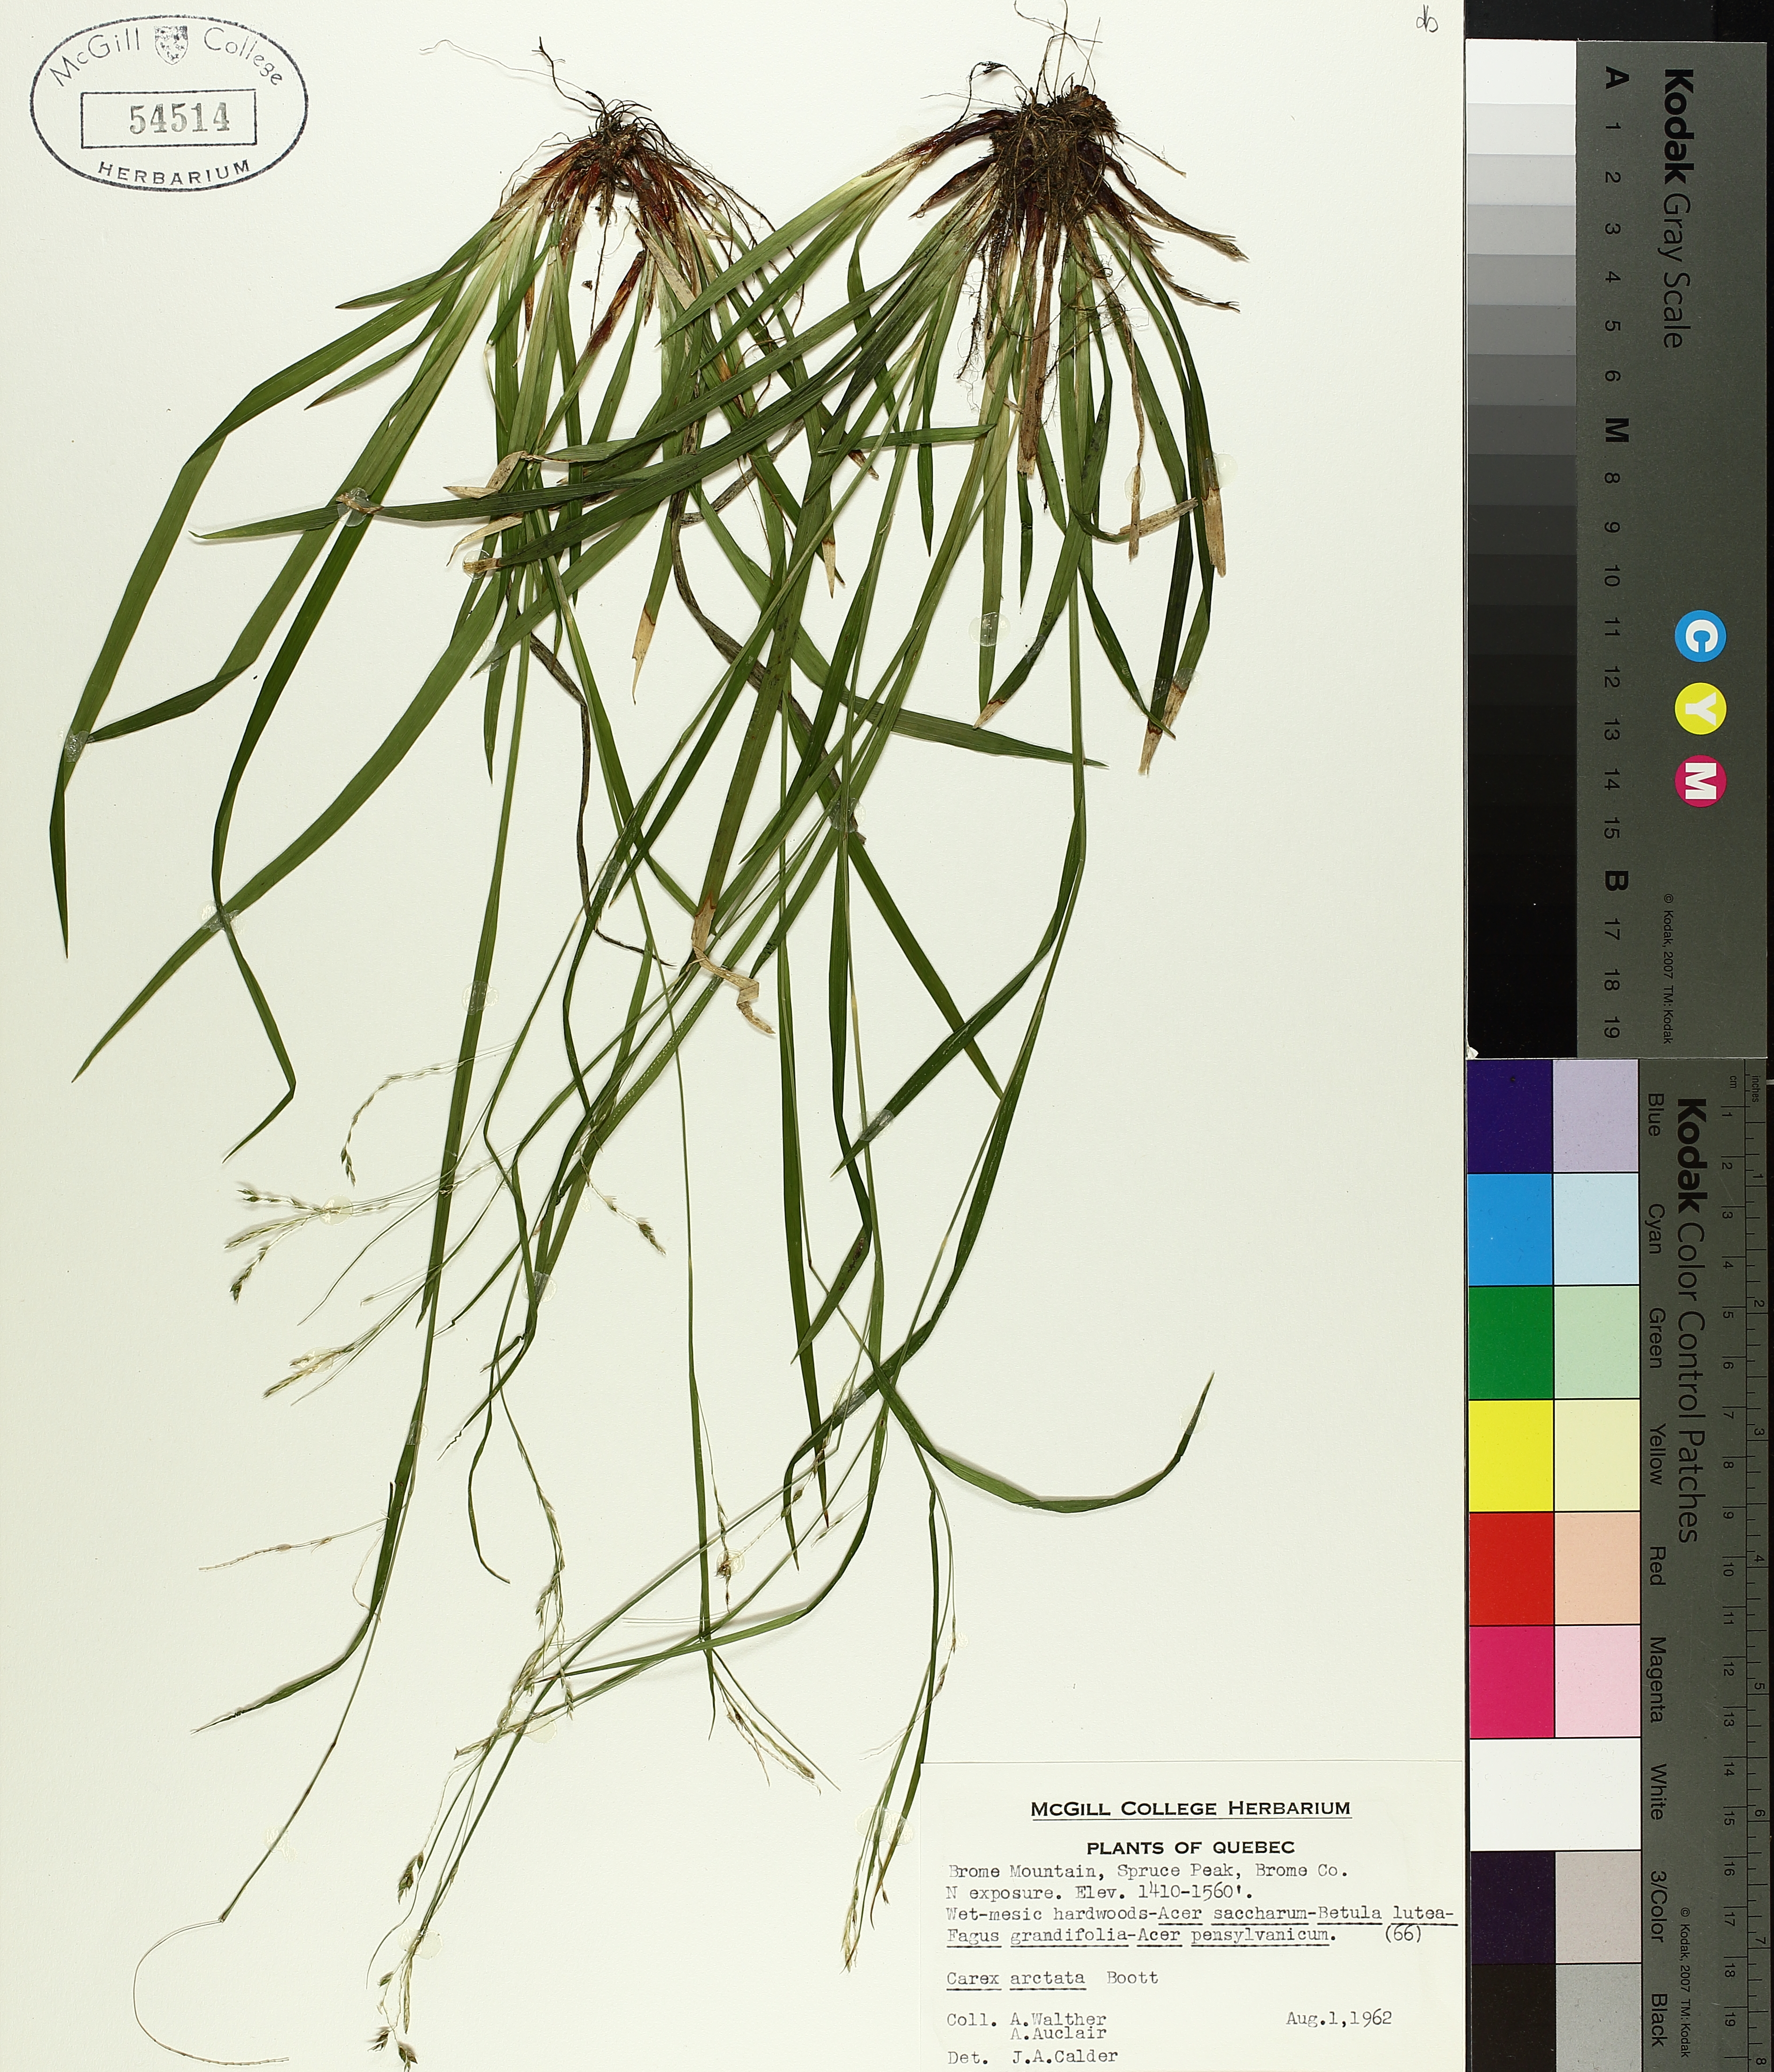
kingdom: Plantae
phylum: Tracheophyta
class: Liliopsida
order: Poales
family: Cyperaceae
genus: Carex
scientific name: Carex arctata
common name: Black sedge
